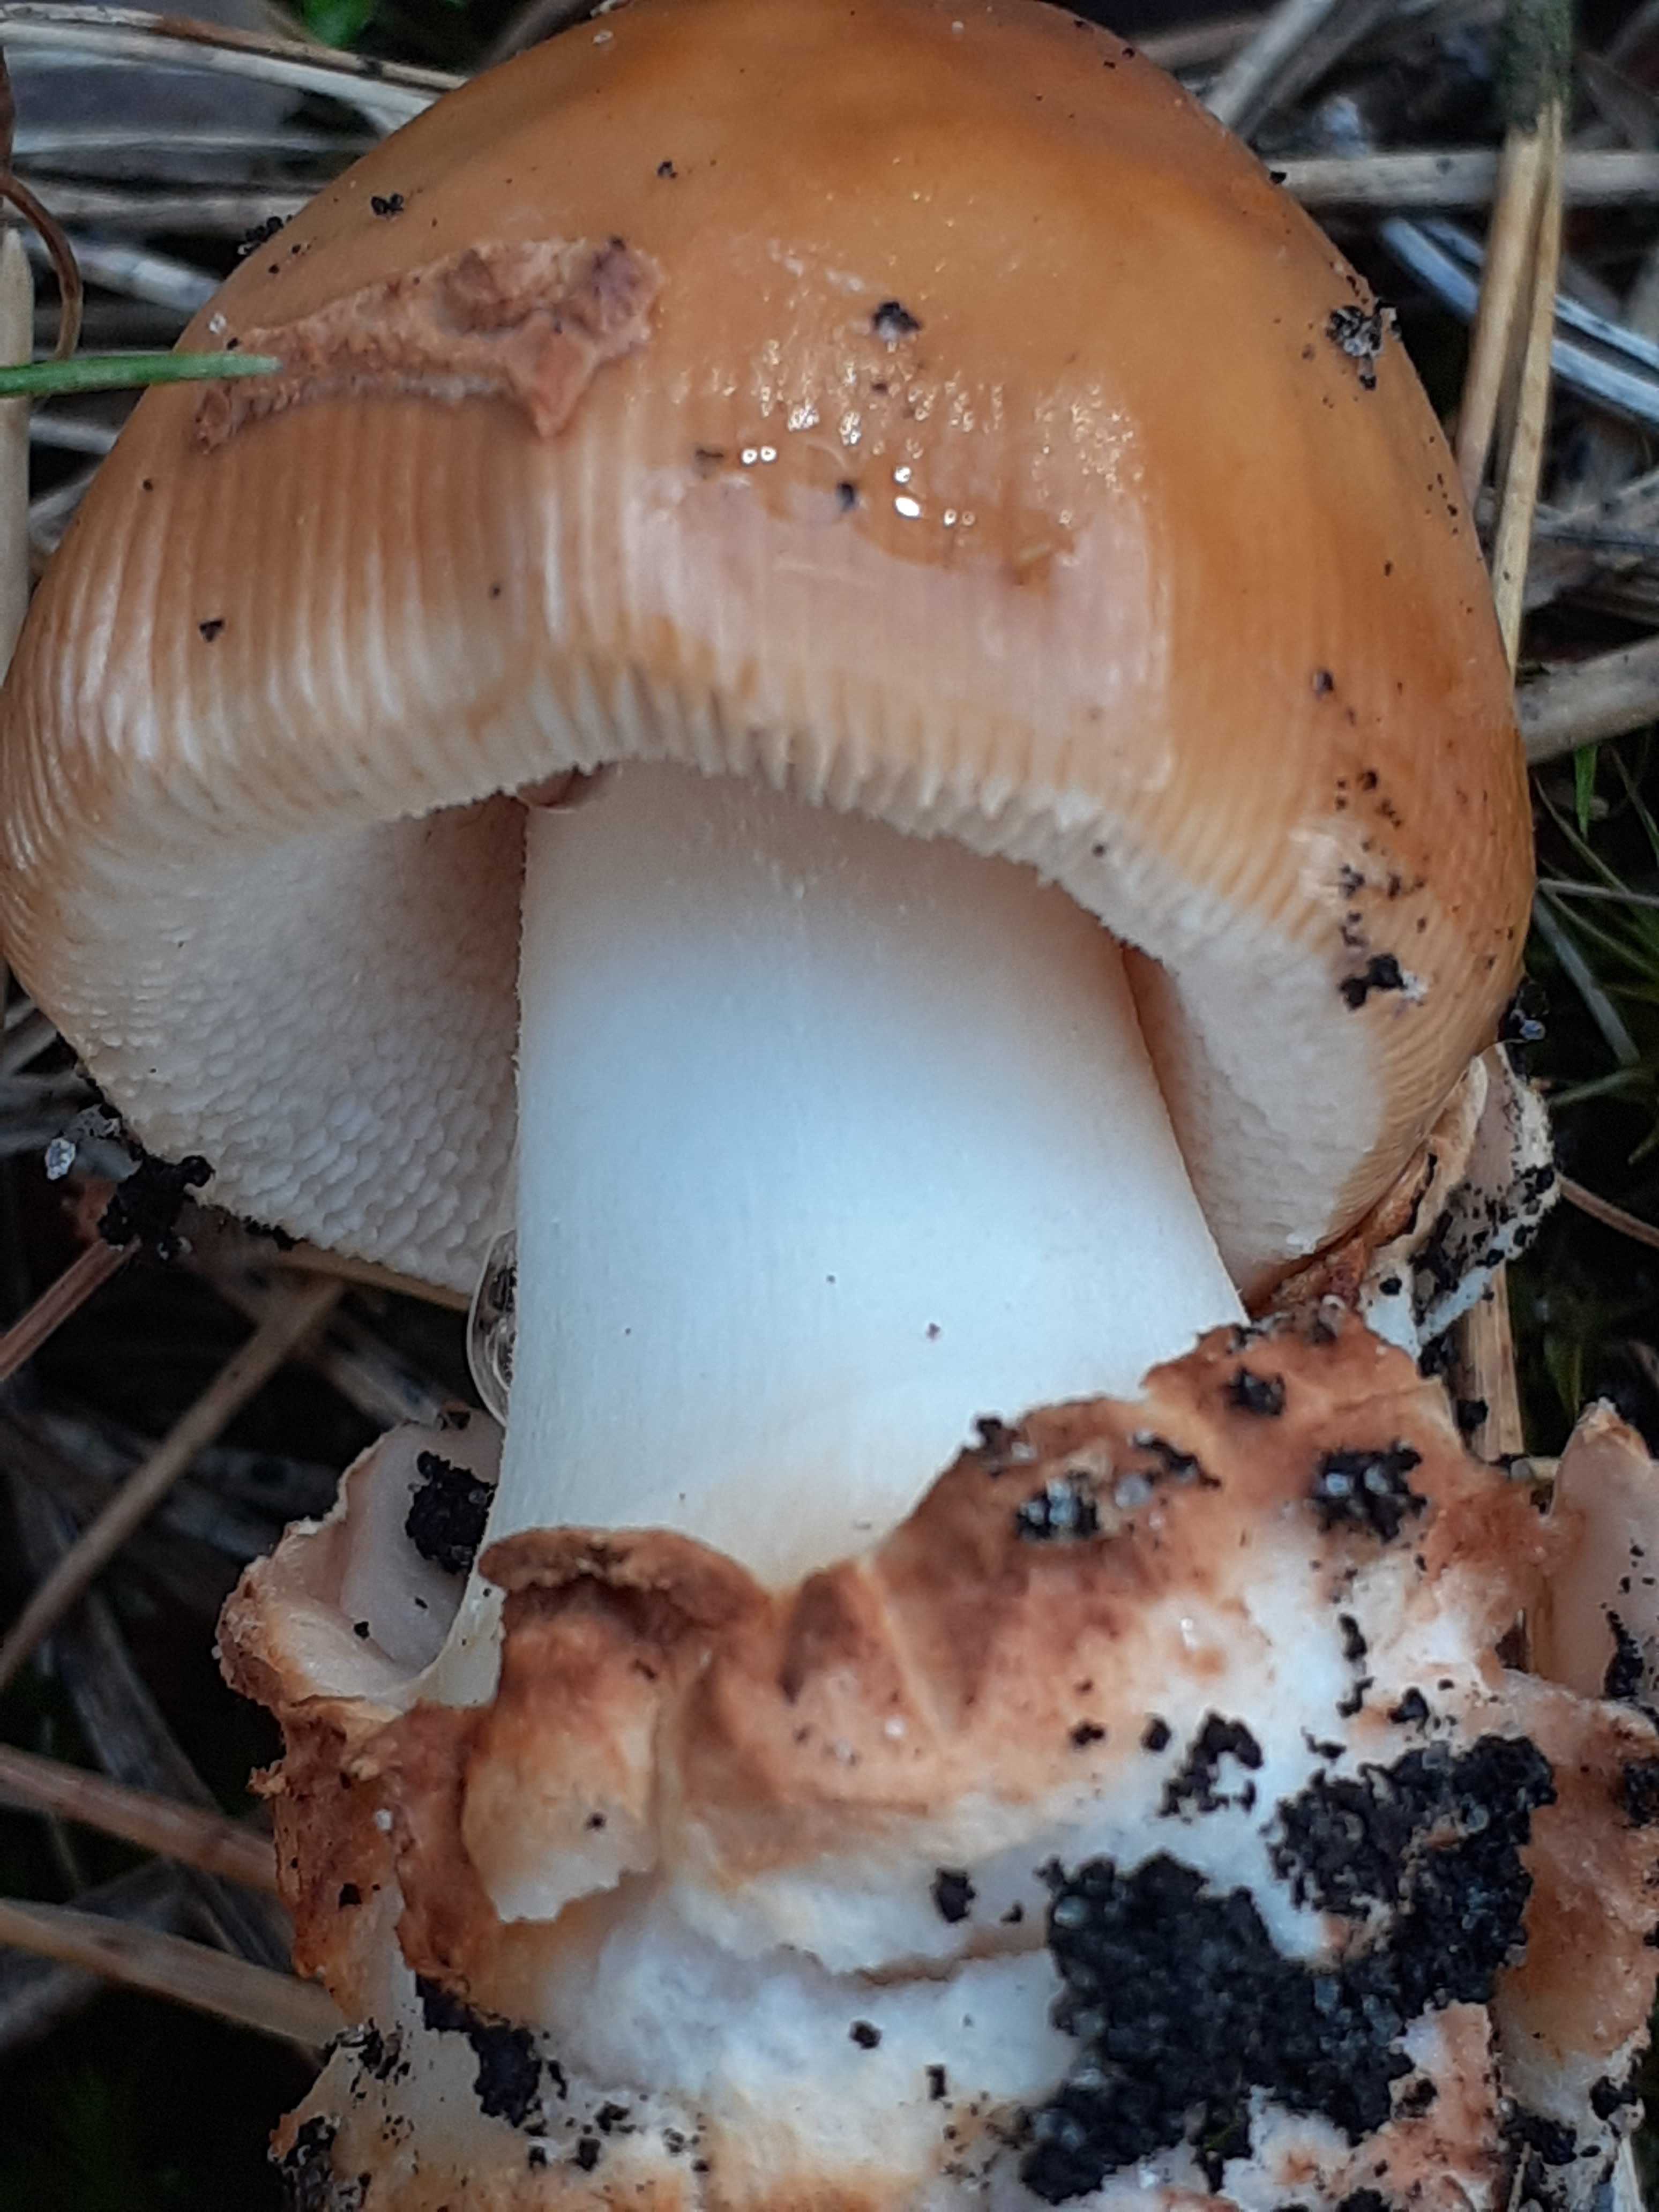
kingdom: Fungi
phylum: Basidiomycota
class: Agaricomycetes
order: Agaricales
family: Amanitaceae
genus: Amanita
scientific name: Amanita fulva
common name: brun kam-fluesvamp
